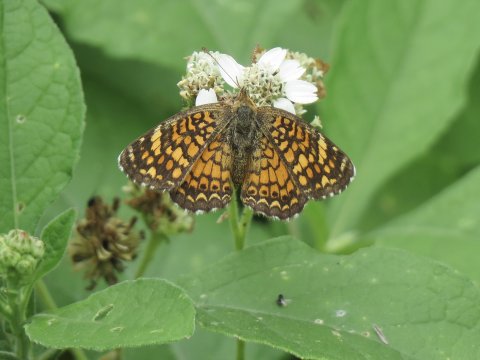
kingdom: Animalia
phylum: Arthropoda
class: Insecta
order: Lepidoptera
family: Nymphalidae
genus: Phyciodes
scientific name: Phyciodes vesta
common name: Vesta Crescent
